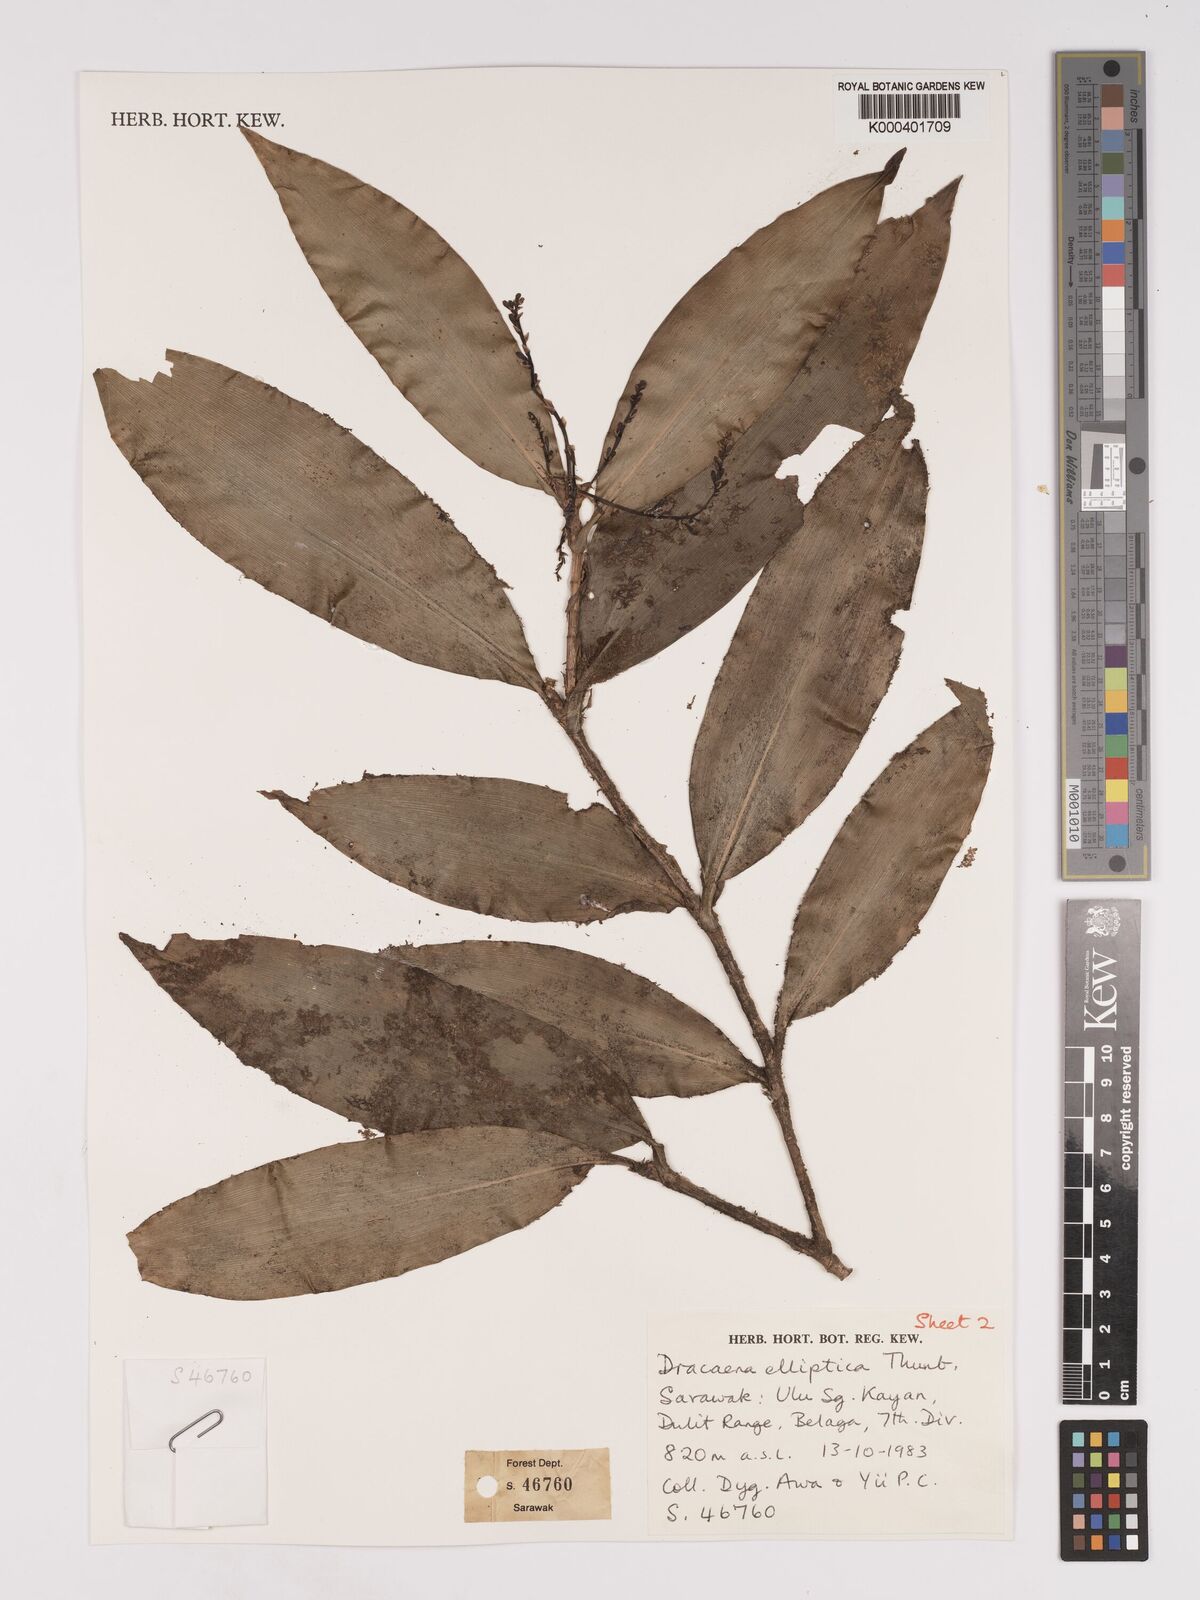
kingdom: Plantae
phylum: Tracheophyta
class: Liliopsida
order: Asparagales
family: Asparagaceae
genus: Dracaena
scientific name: Dracaena elliptica
